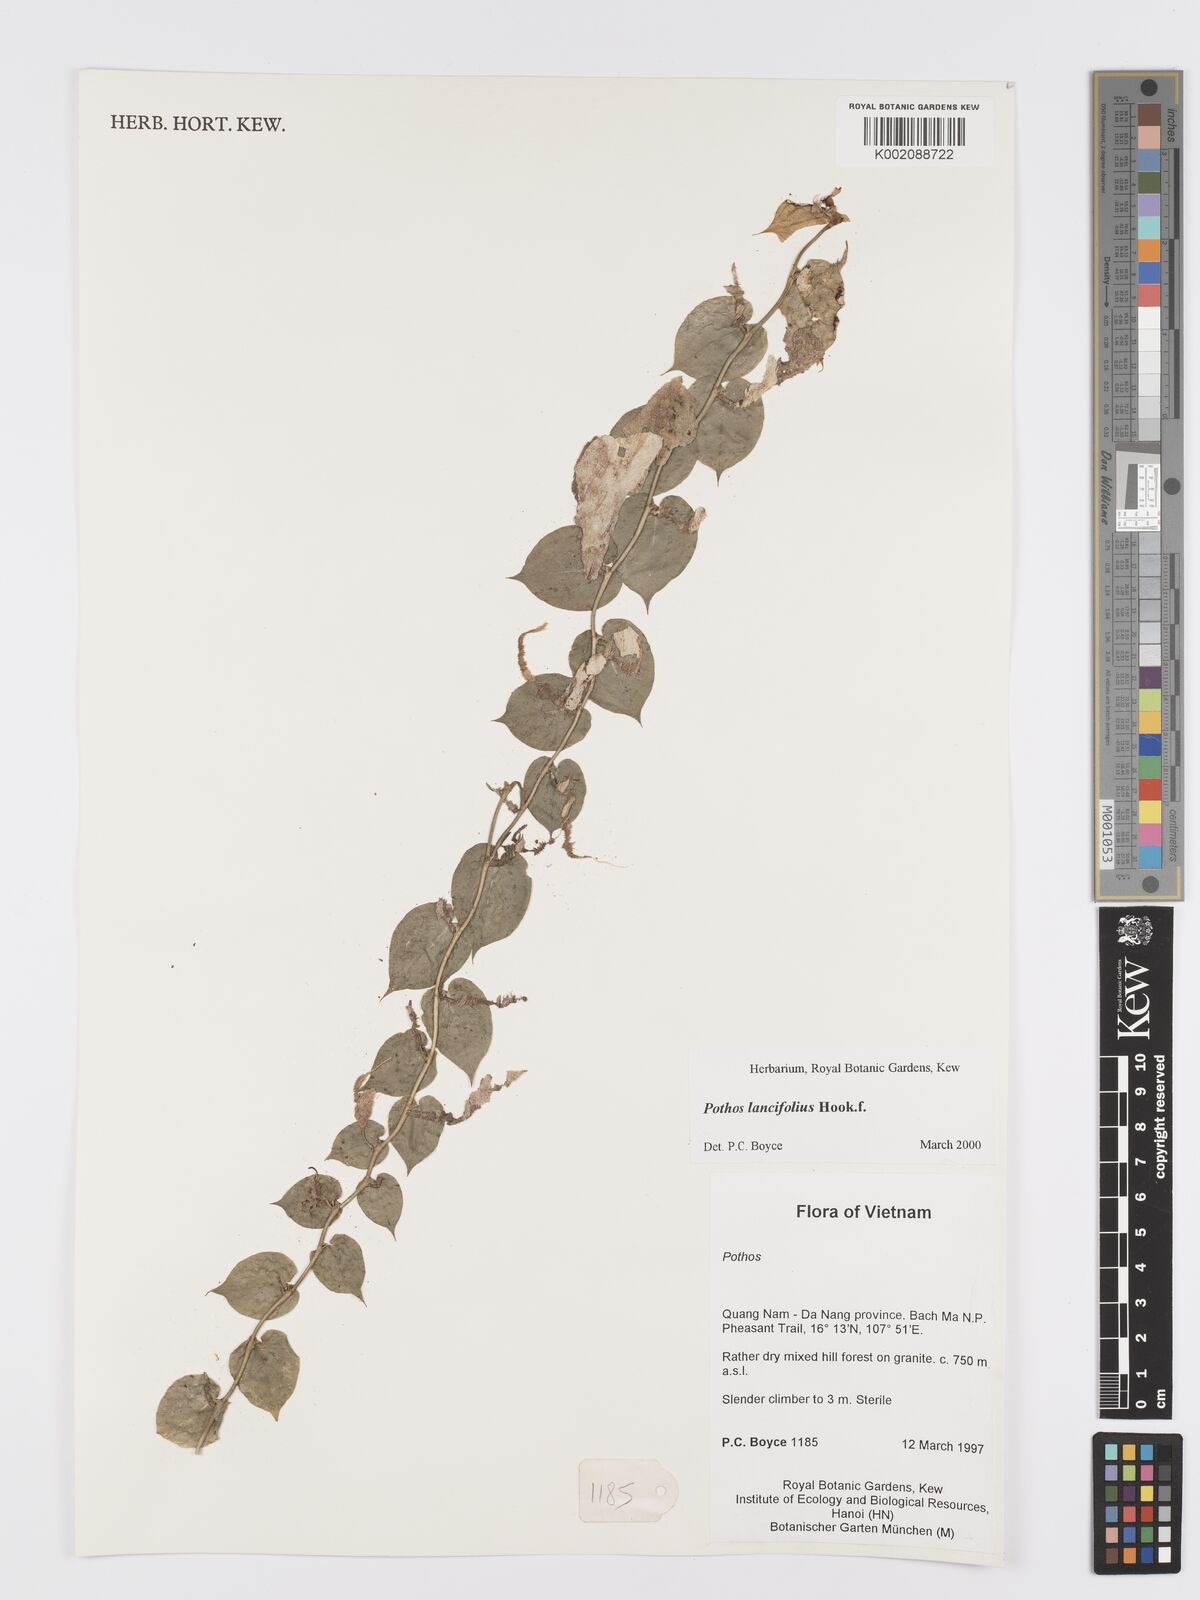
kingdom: Plantae
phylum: Tracheophyta
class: Liliopsida
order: Alismatales
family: Araceae
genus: Pothos
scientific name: Pothos lancifolius
